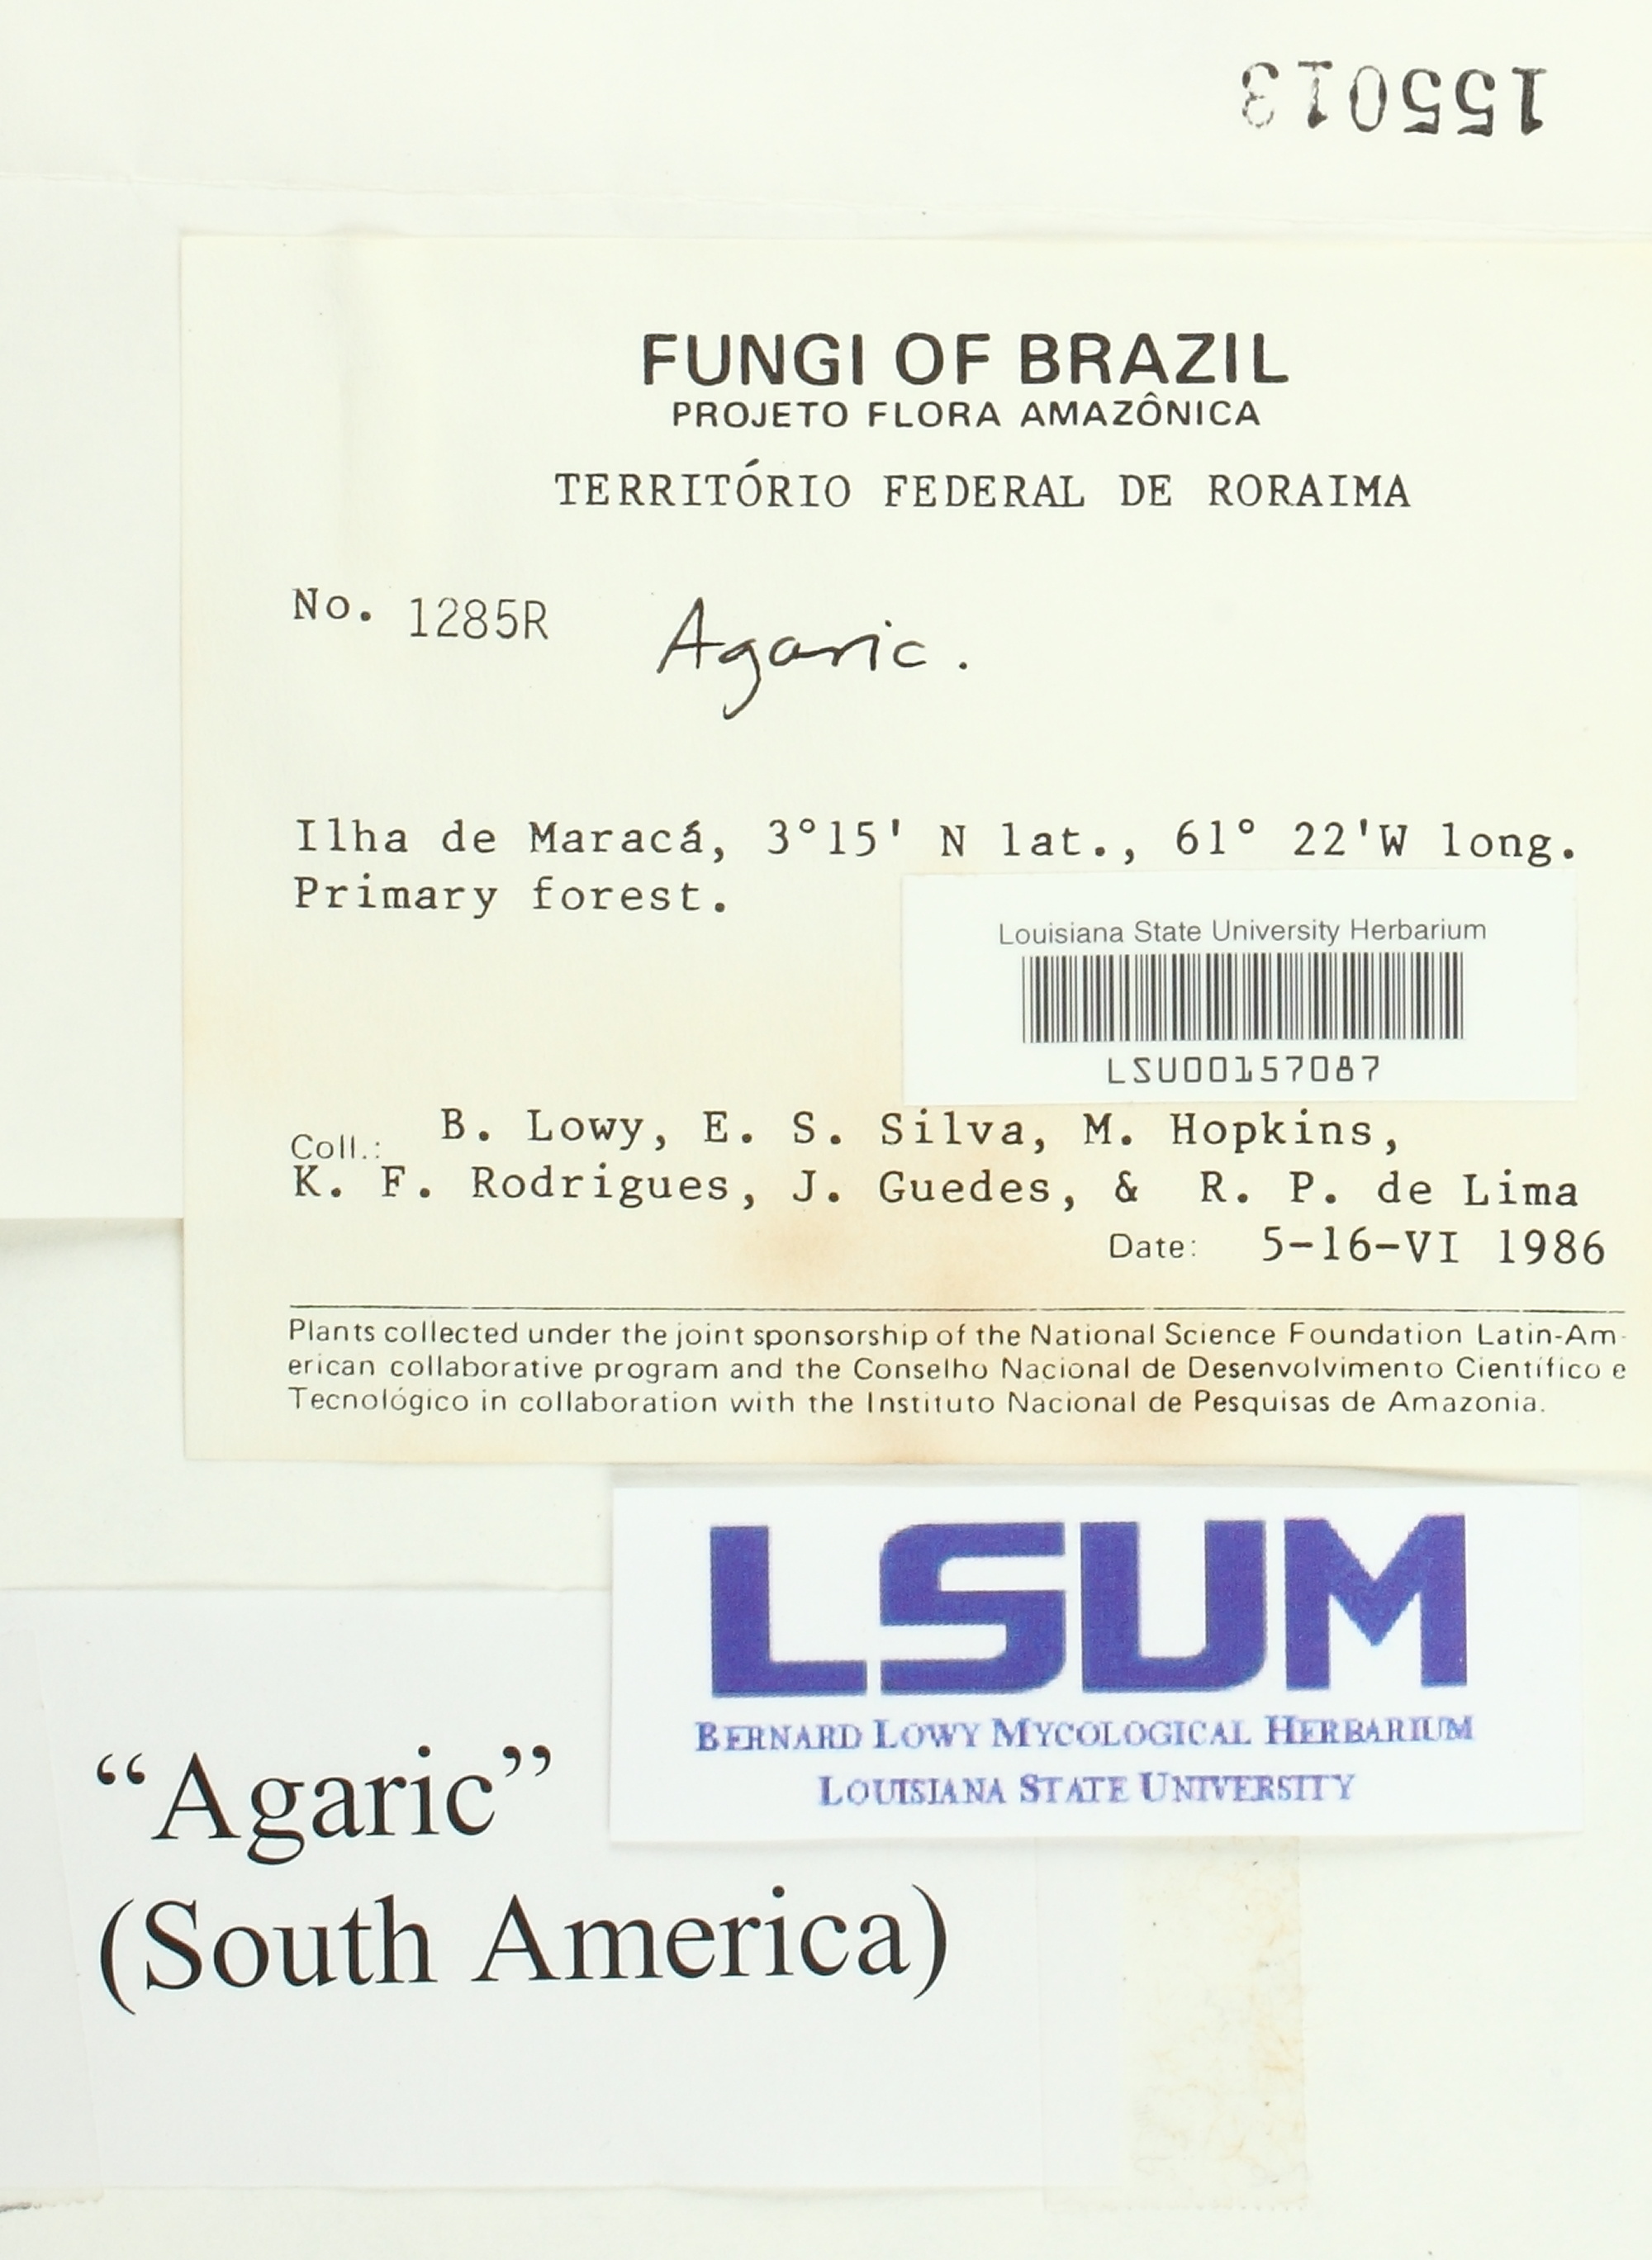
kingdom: Fungi
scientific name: Fungi
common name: Fungi
